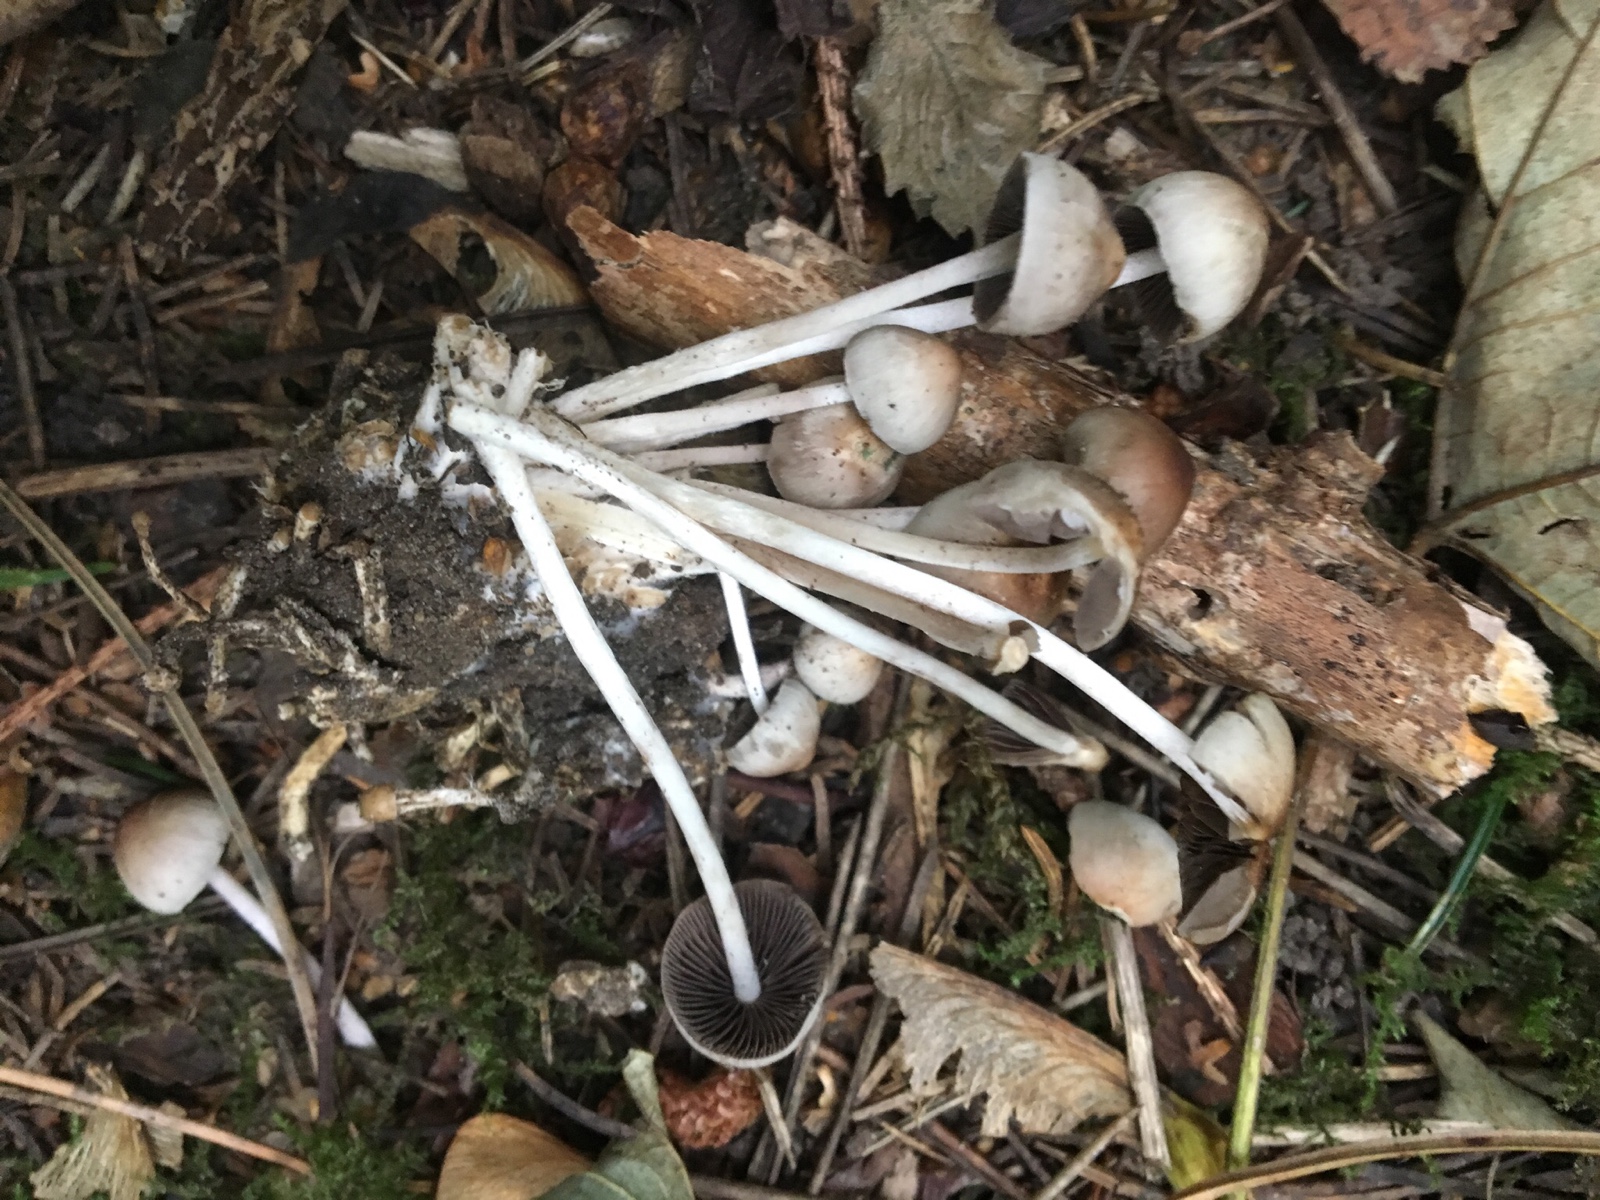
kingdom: Fungi
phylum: Basidiomycota
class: Agaricomycetes
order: Agaricales
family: Psathyrellaceae
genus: Britzelmayria
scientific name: Britzelmayria multipedata
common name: knippe-mørkhat
